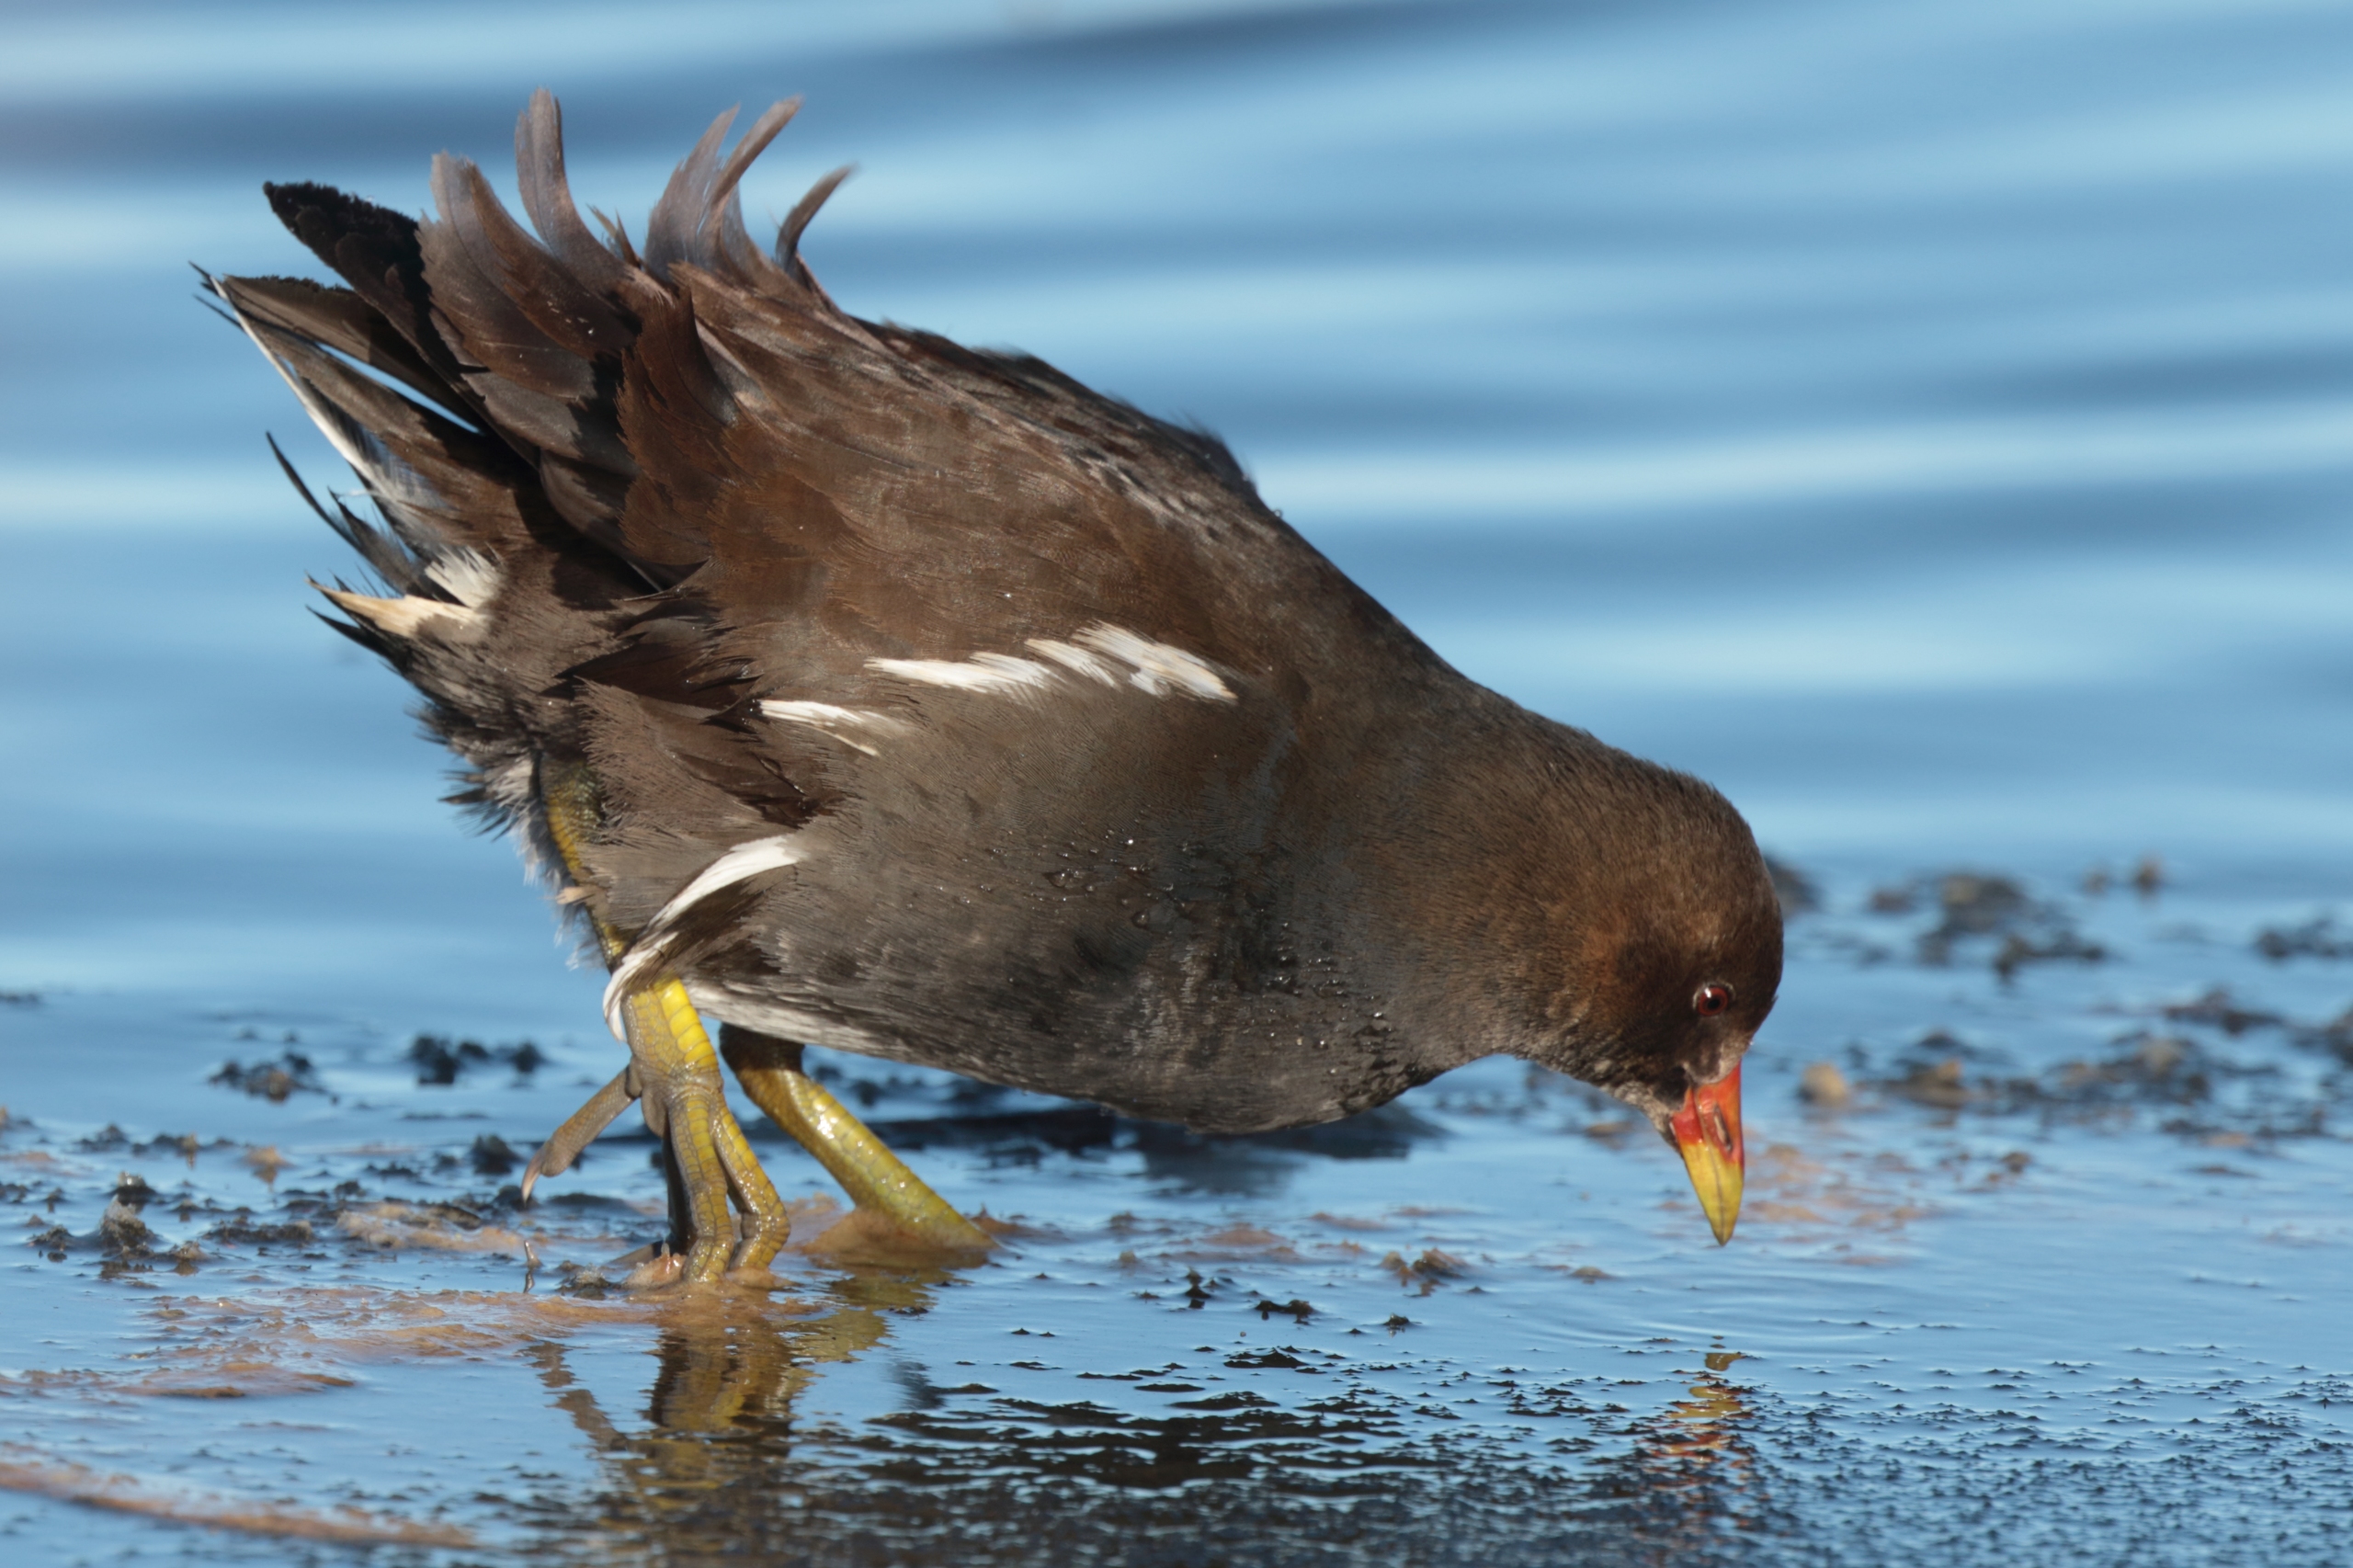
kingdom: Animalia
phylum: Chordata
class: Aves
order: Gruiformes
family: Rallidae
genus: Gallinula
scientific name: Gallinula chloropus
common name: Grønbenet rørhøne
